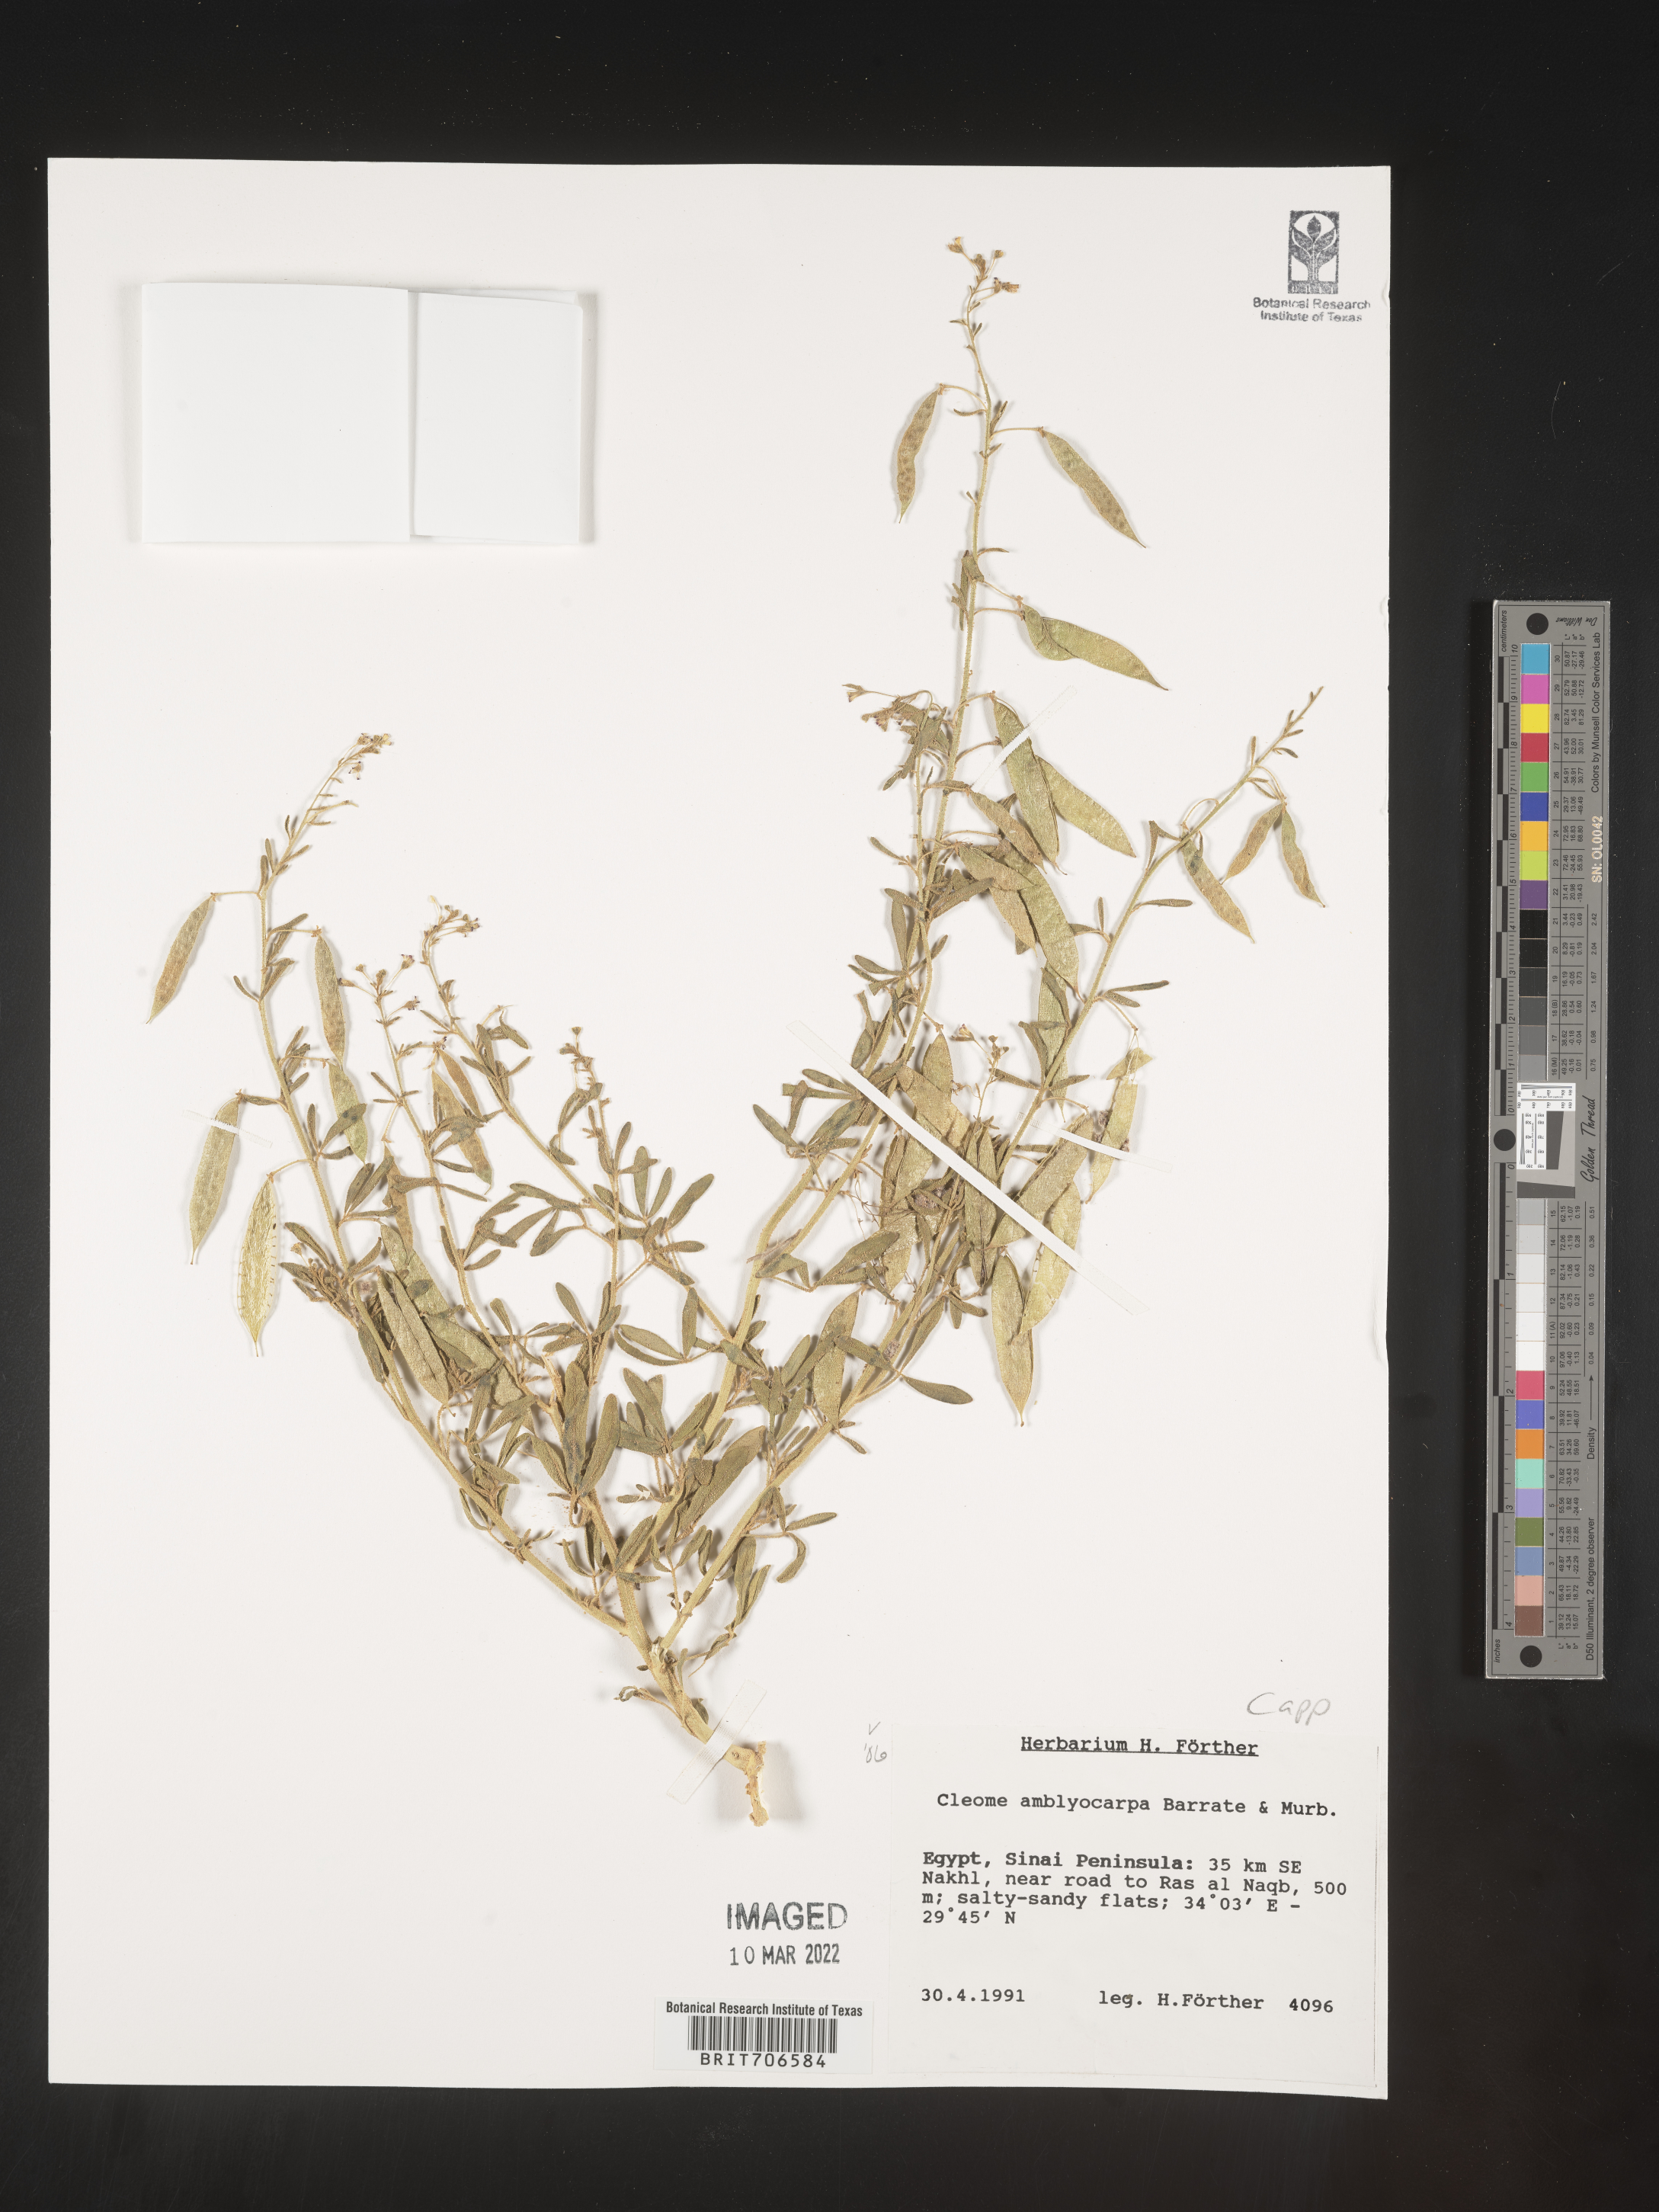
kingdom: Plantae
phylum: Tracheophyta
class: Magnoliopsida
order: Brassicales
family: Cleomaceae
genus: Cleome
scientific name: Cleome
